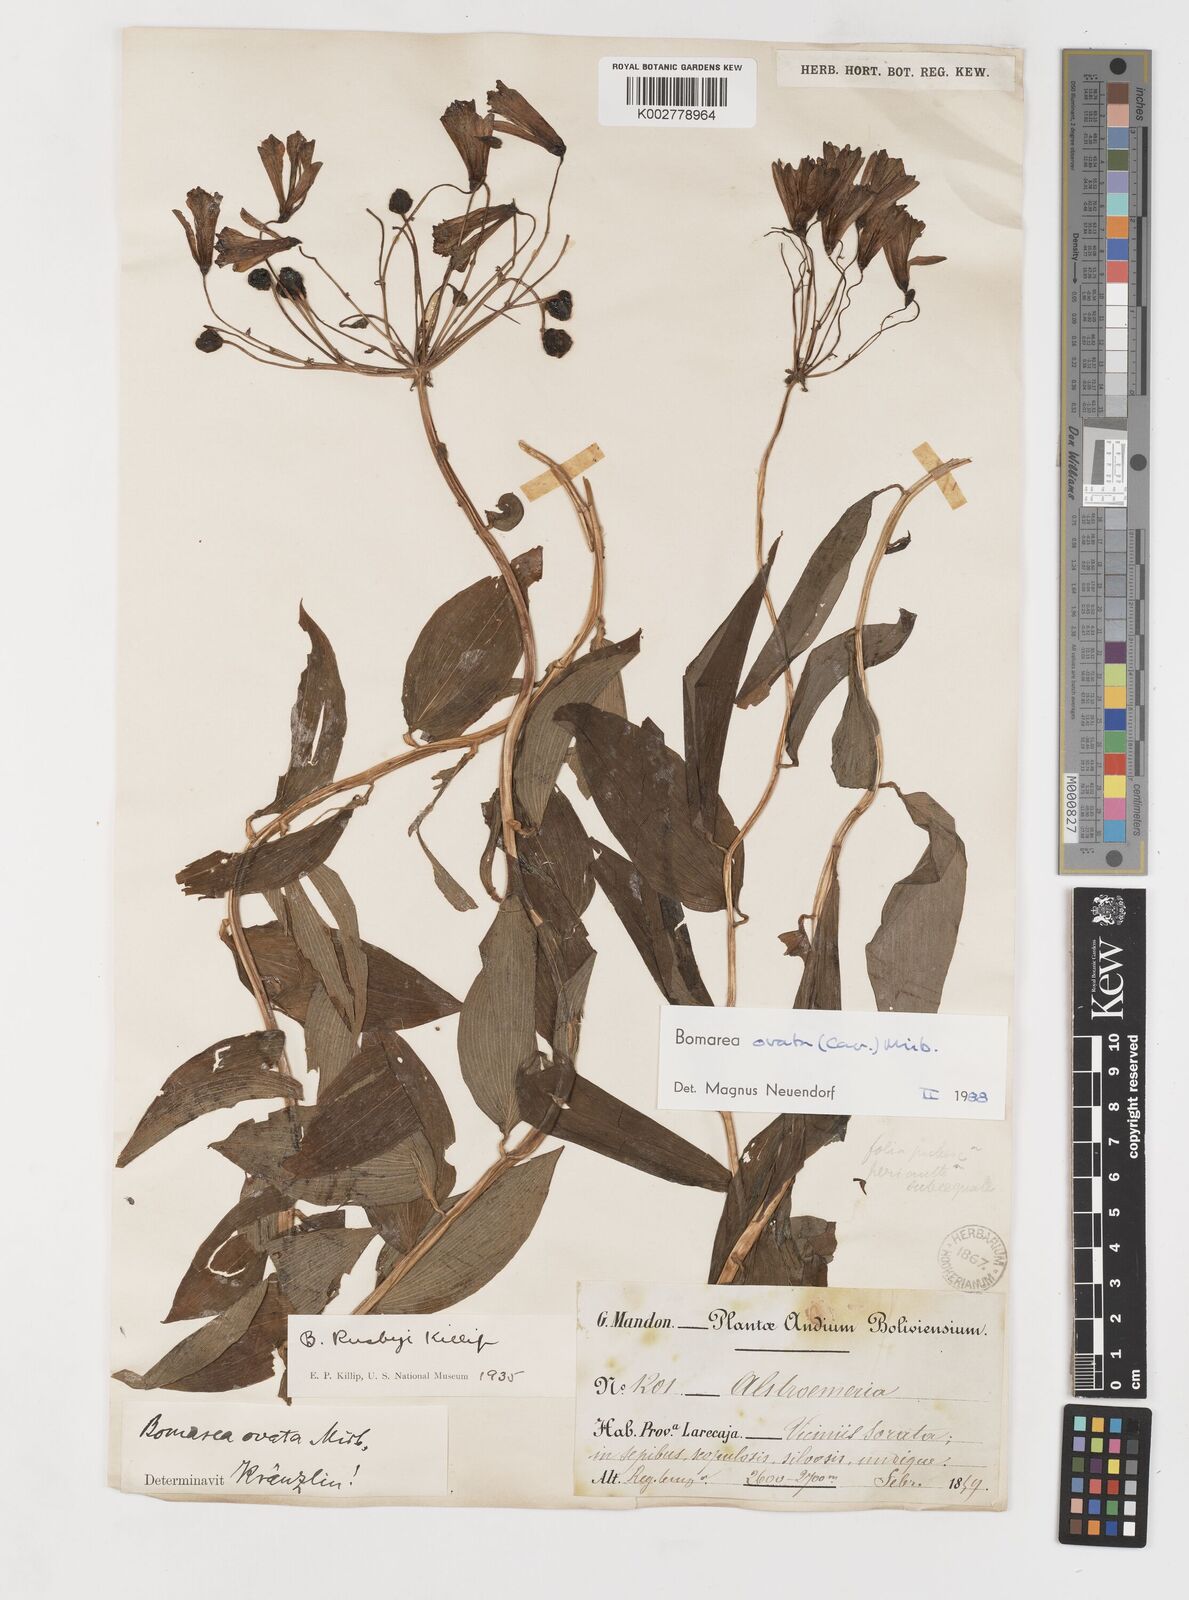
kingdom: Plantae
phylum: Tracheophyta
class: Liliopsida
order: Liliales
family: Alstroemeriaceae
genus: Bomarea
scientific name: Bomarea ovata
